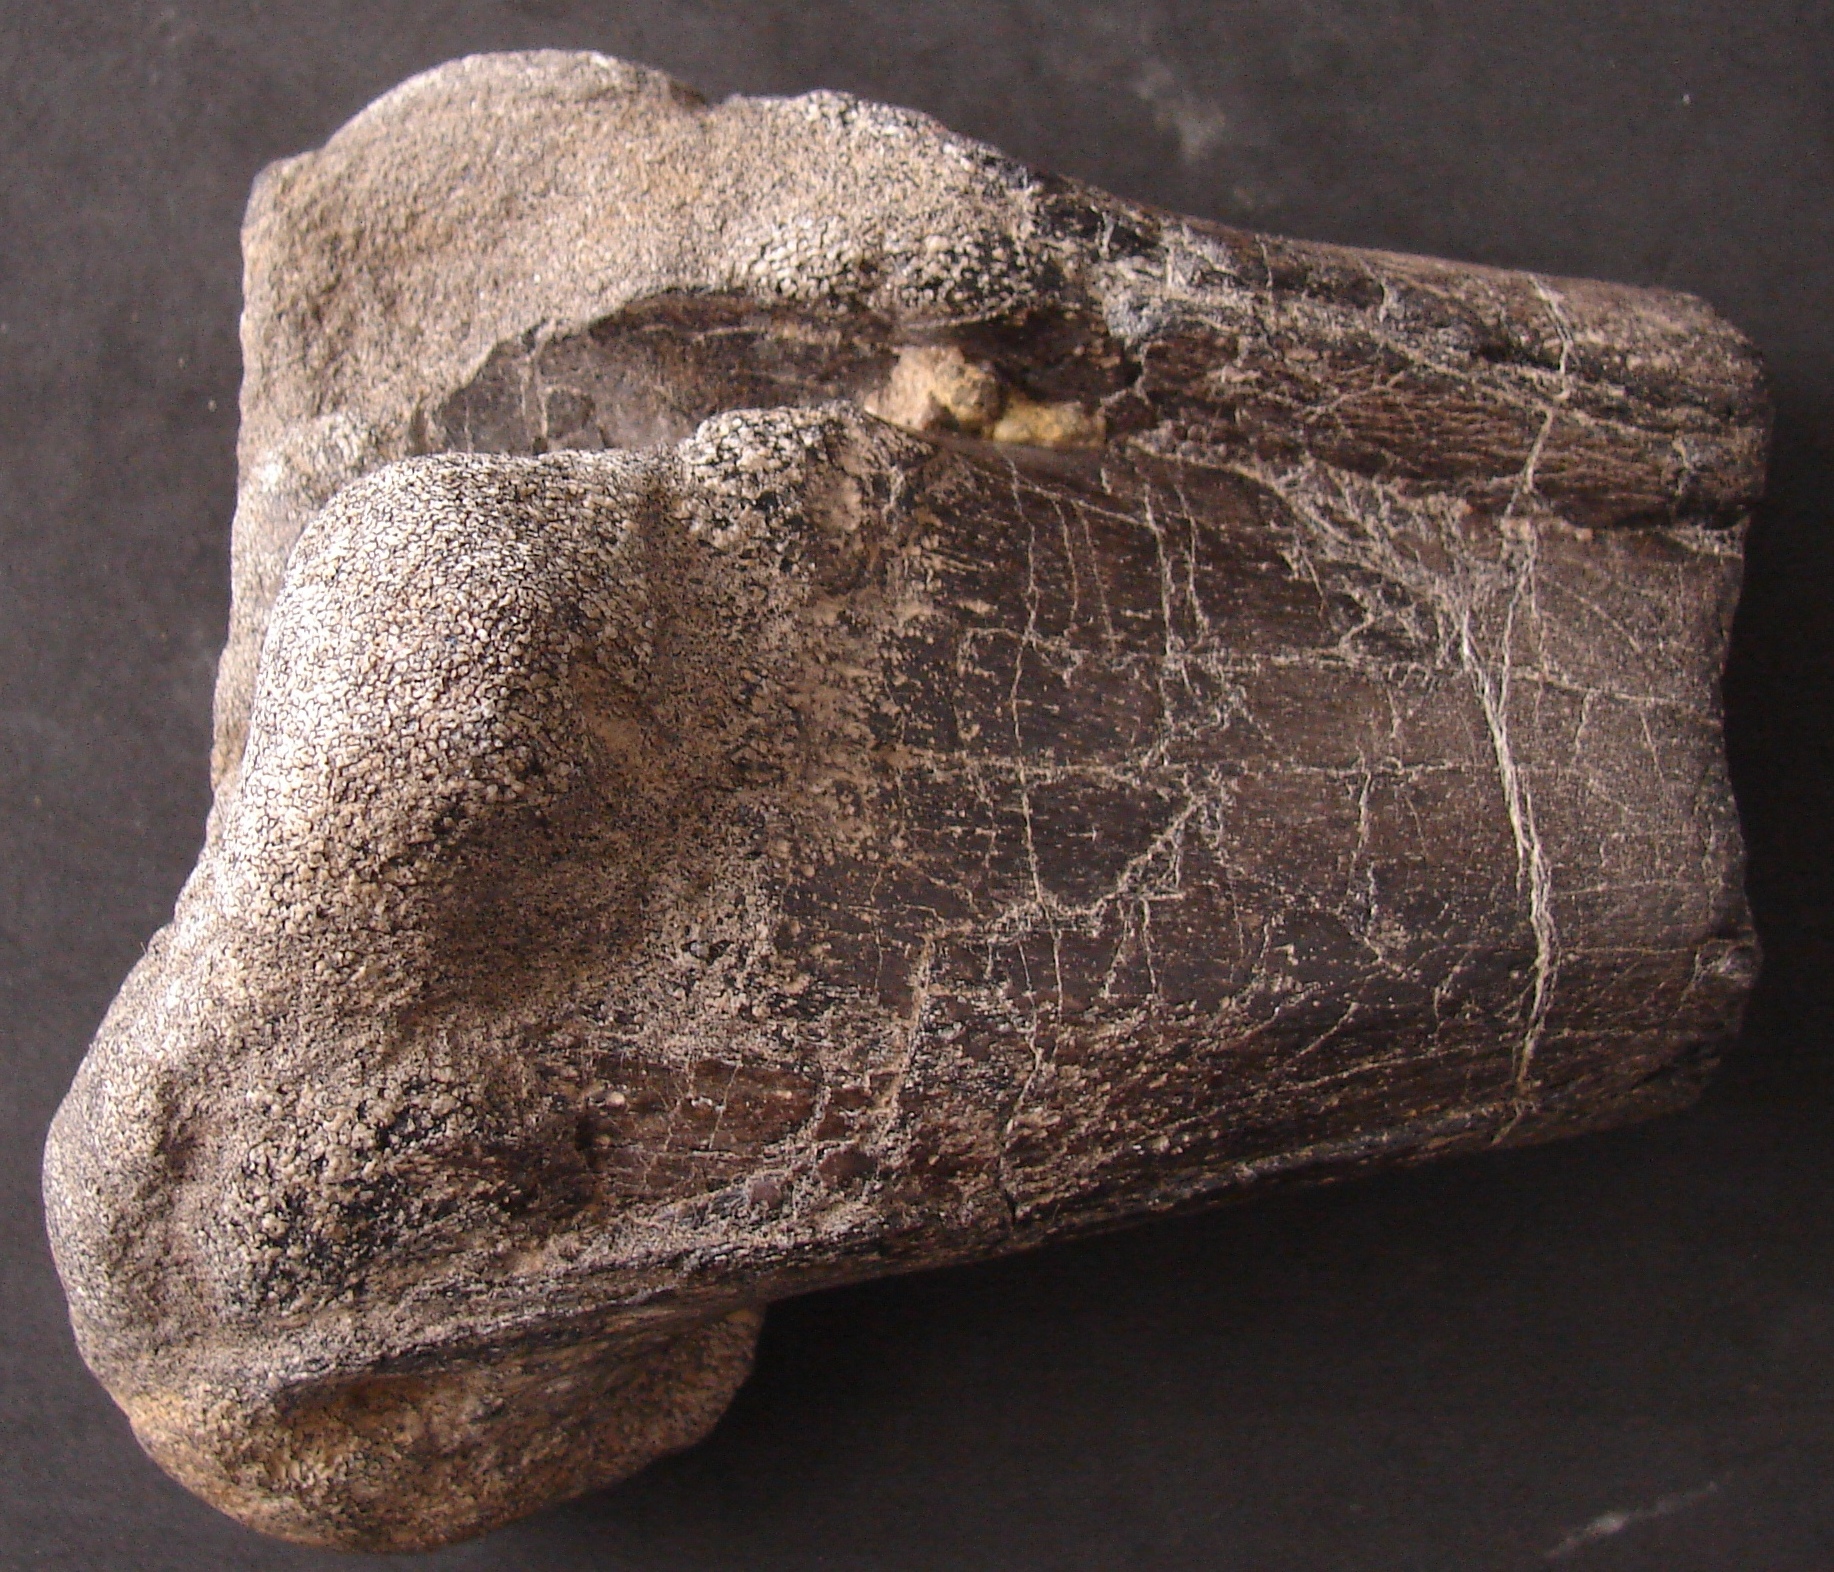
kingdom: Animalia
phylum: Chordata
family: Iguanodontidae
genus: Iguanodon
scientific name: Iguanodon
